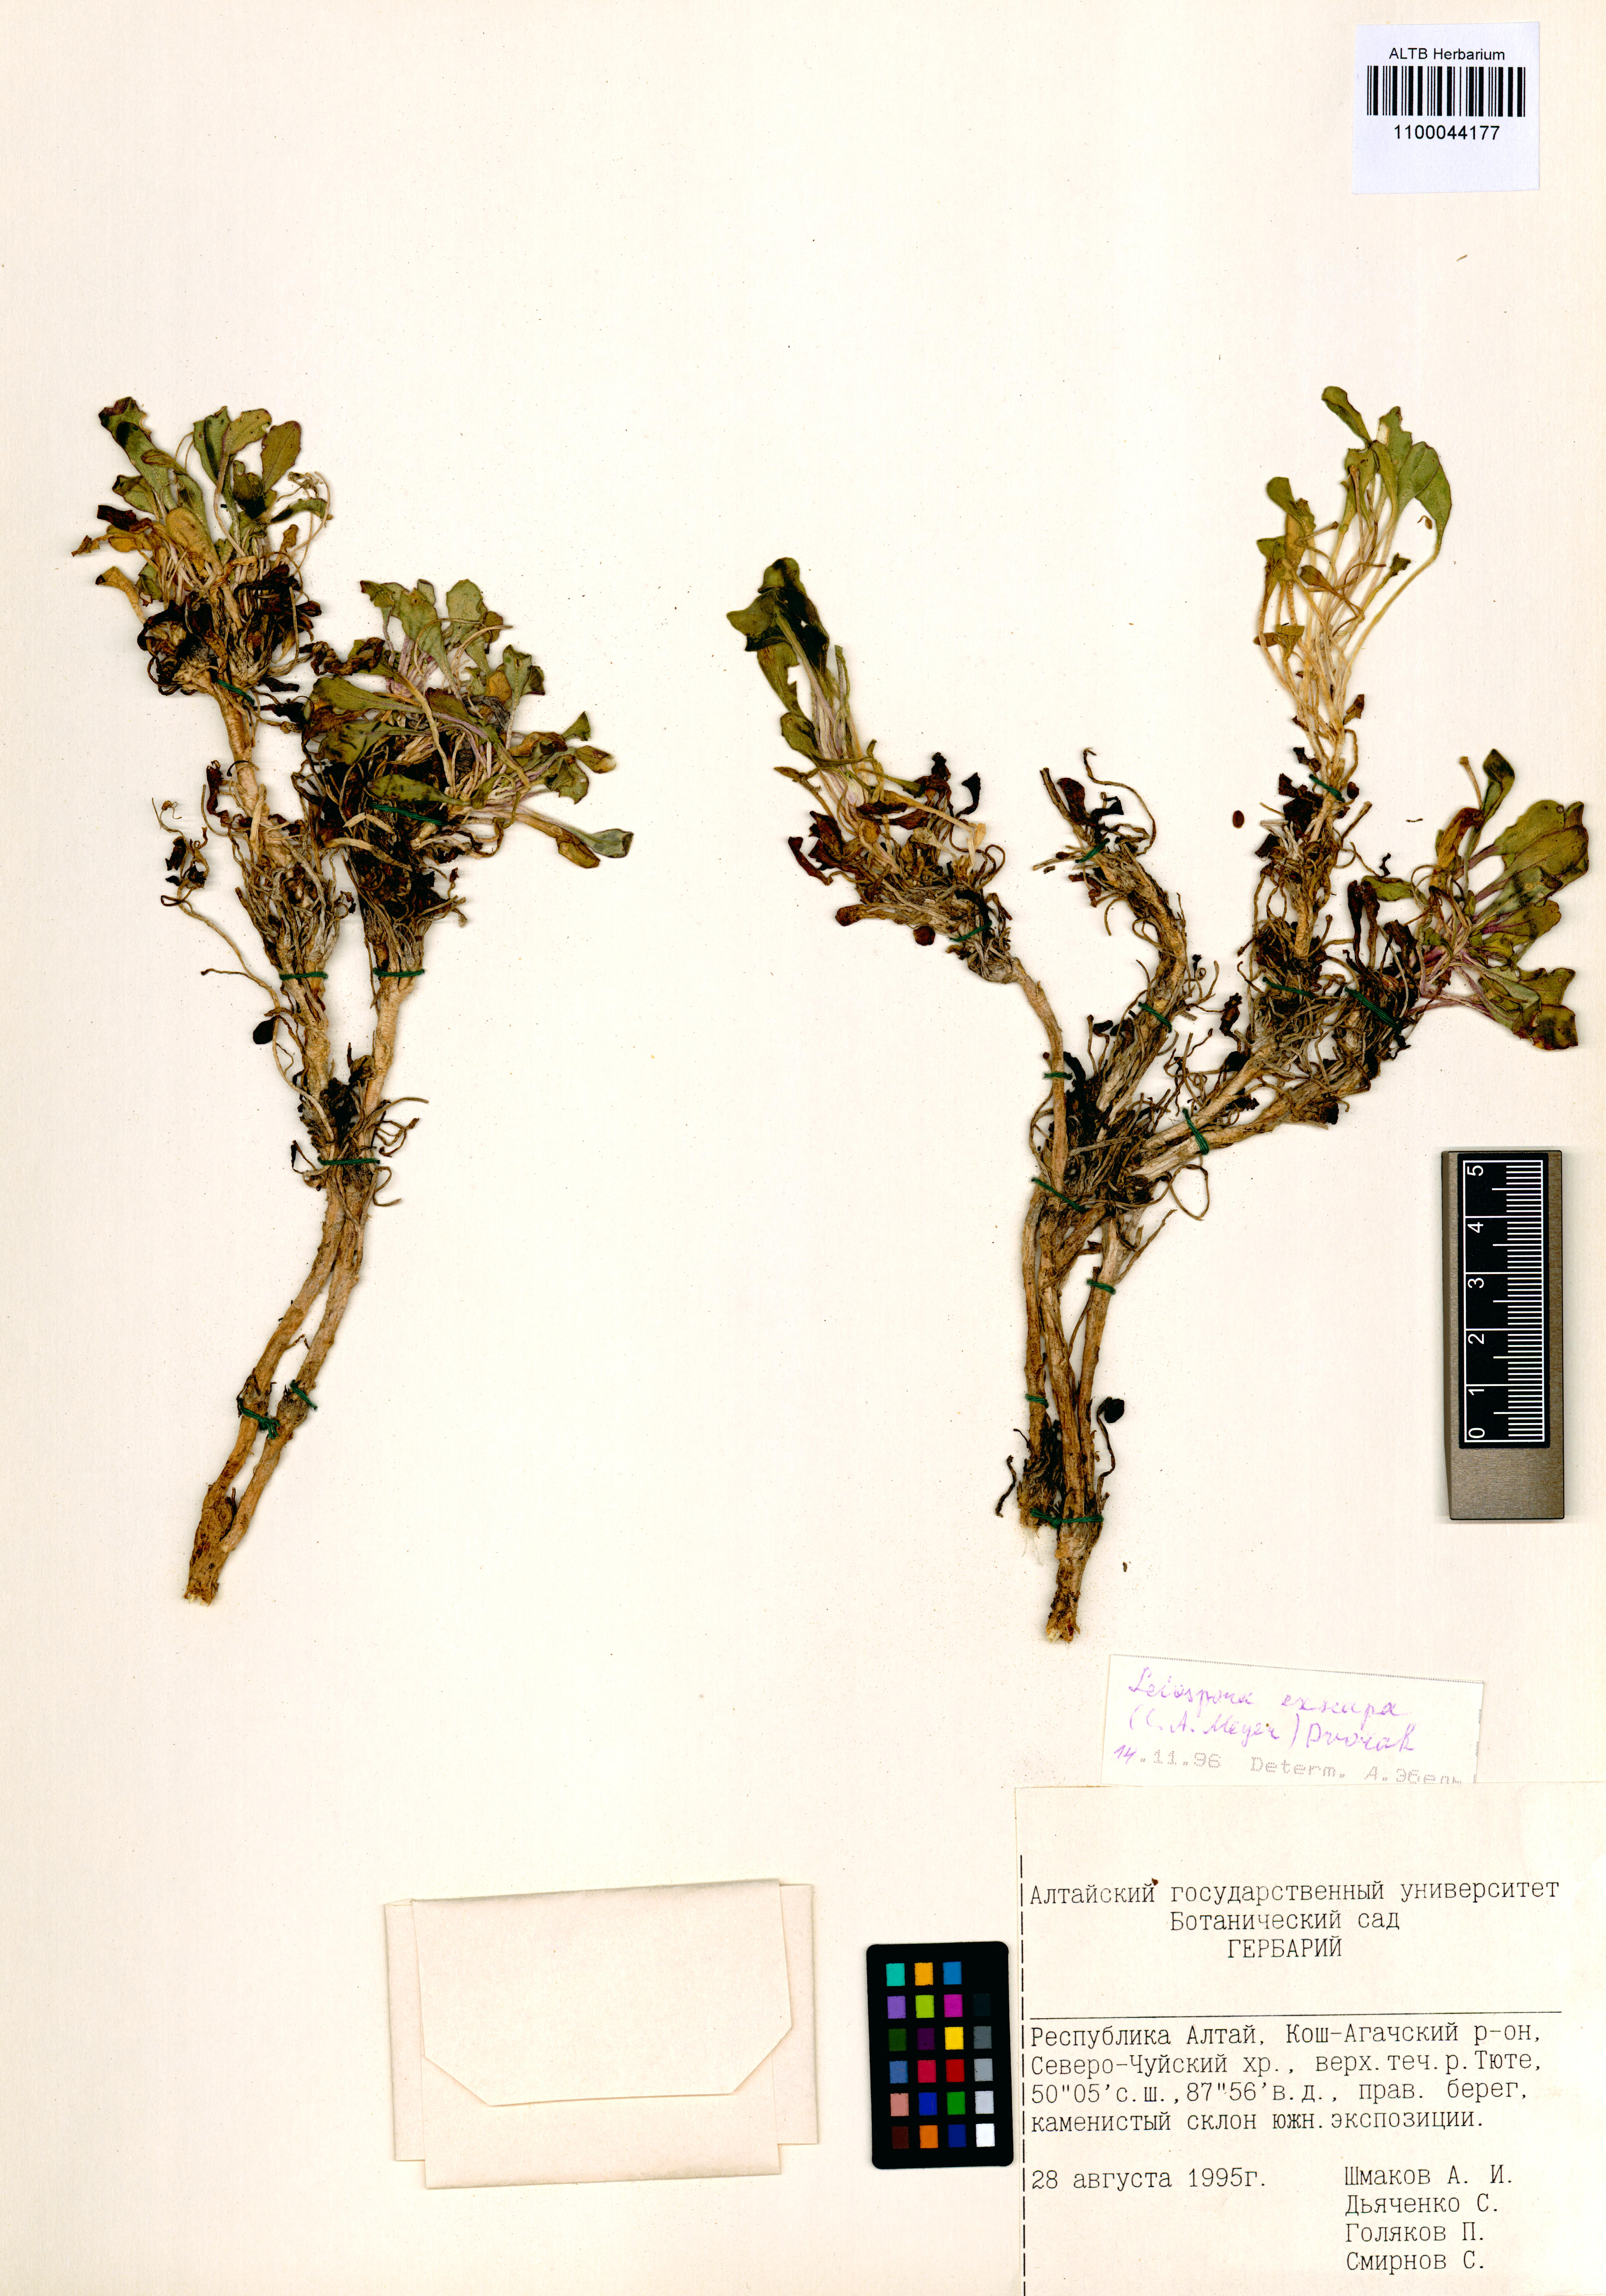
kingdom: Plantae
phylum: Tracheophyta
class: Magnoliopsida
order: Brassicales
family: Brassicaceae
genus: Leiospora
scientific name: Leiospora exscapa
